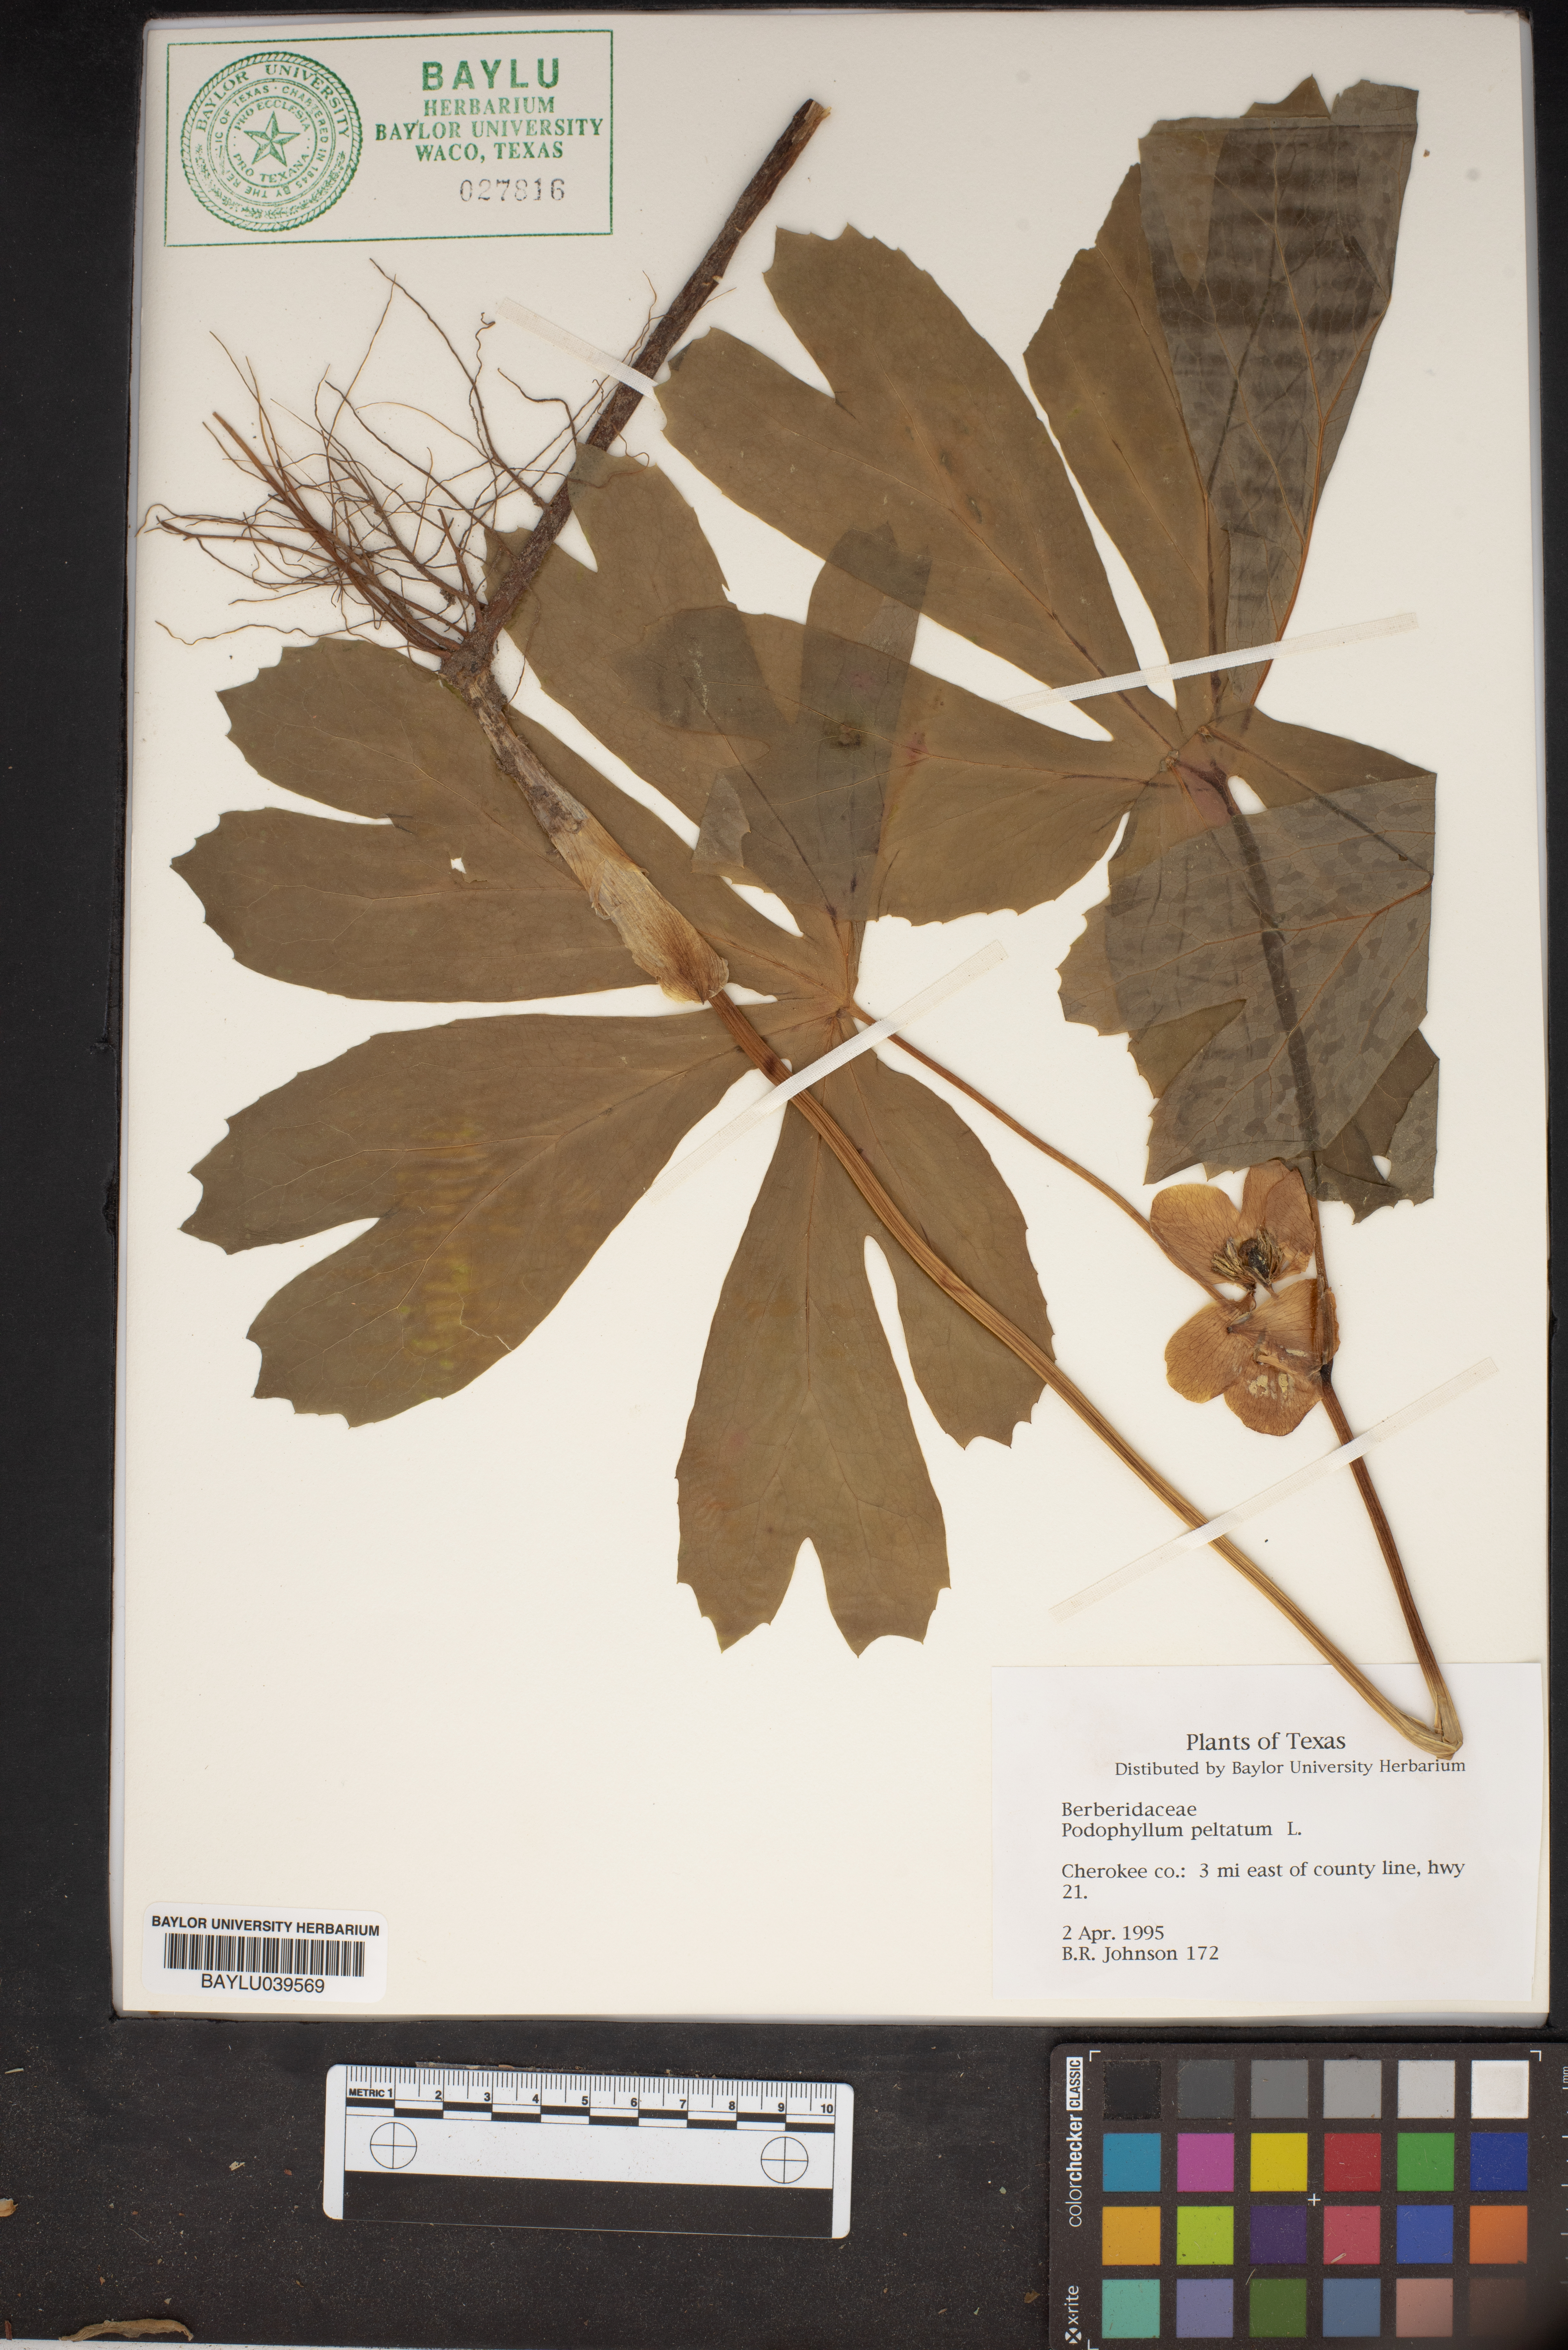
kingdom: Plantae
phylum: Tracheophyta
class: Magnoliopsida
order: Ranunculales
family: Berberidaceae
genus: Podophyllum
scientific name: Podophyllum peltatum
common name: Wild mandrake
